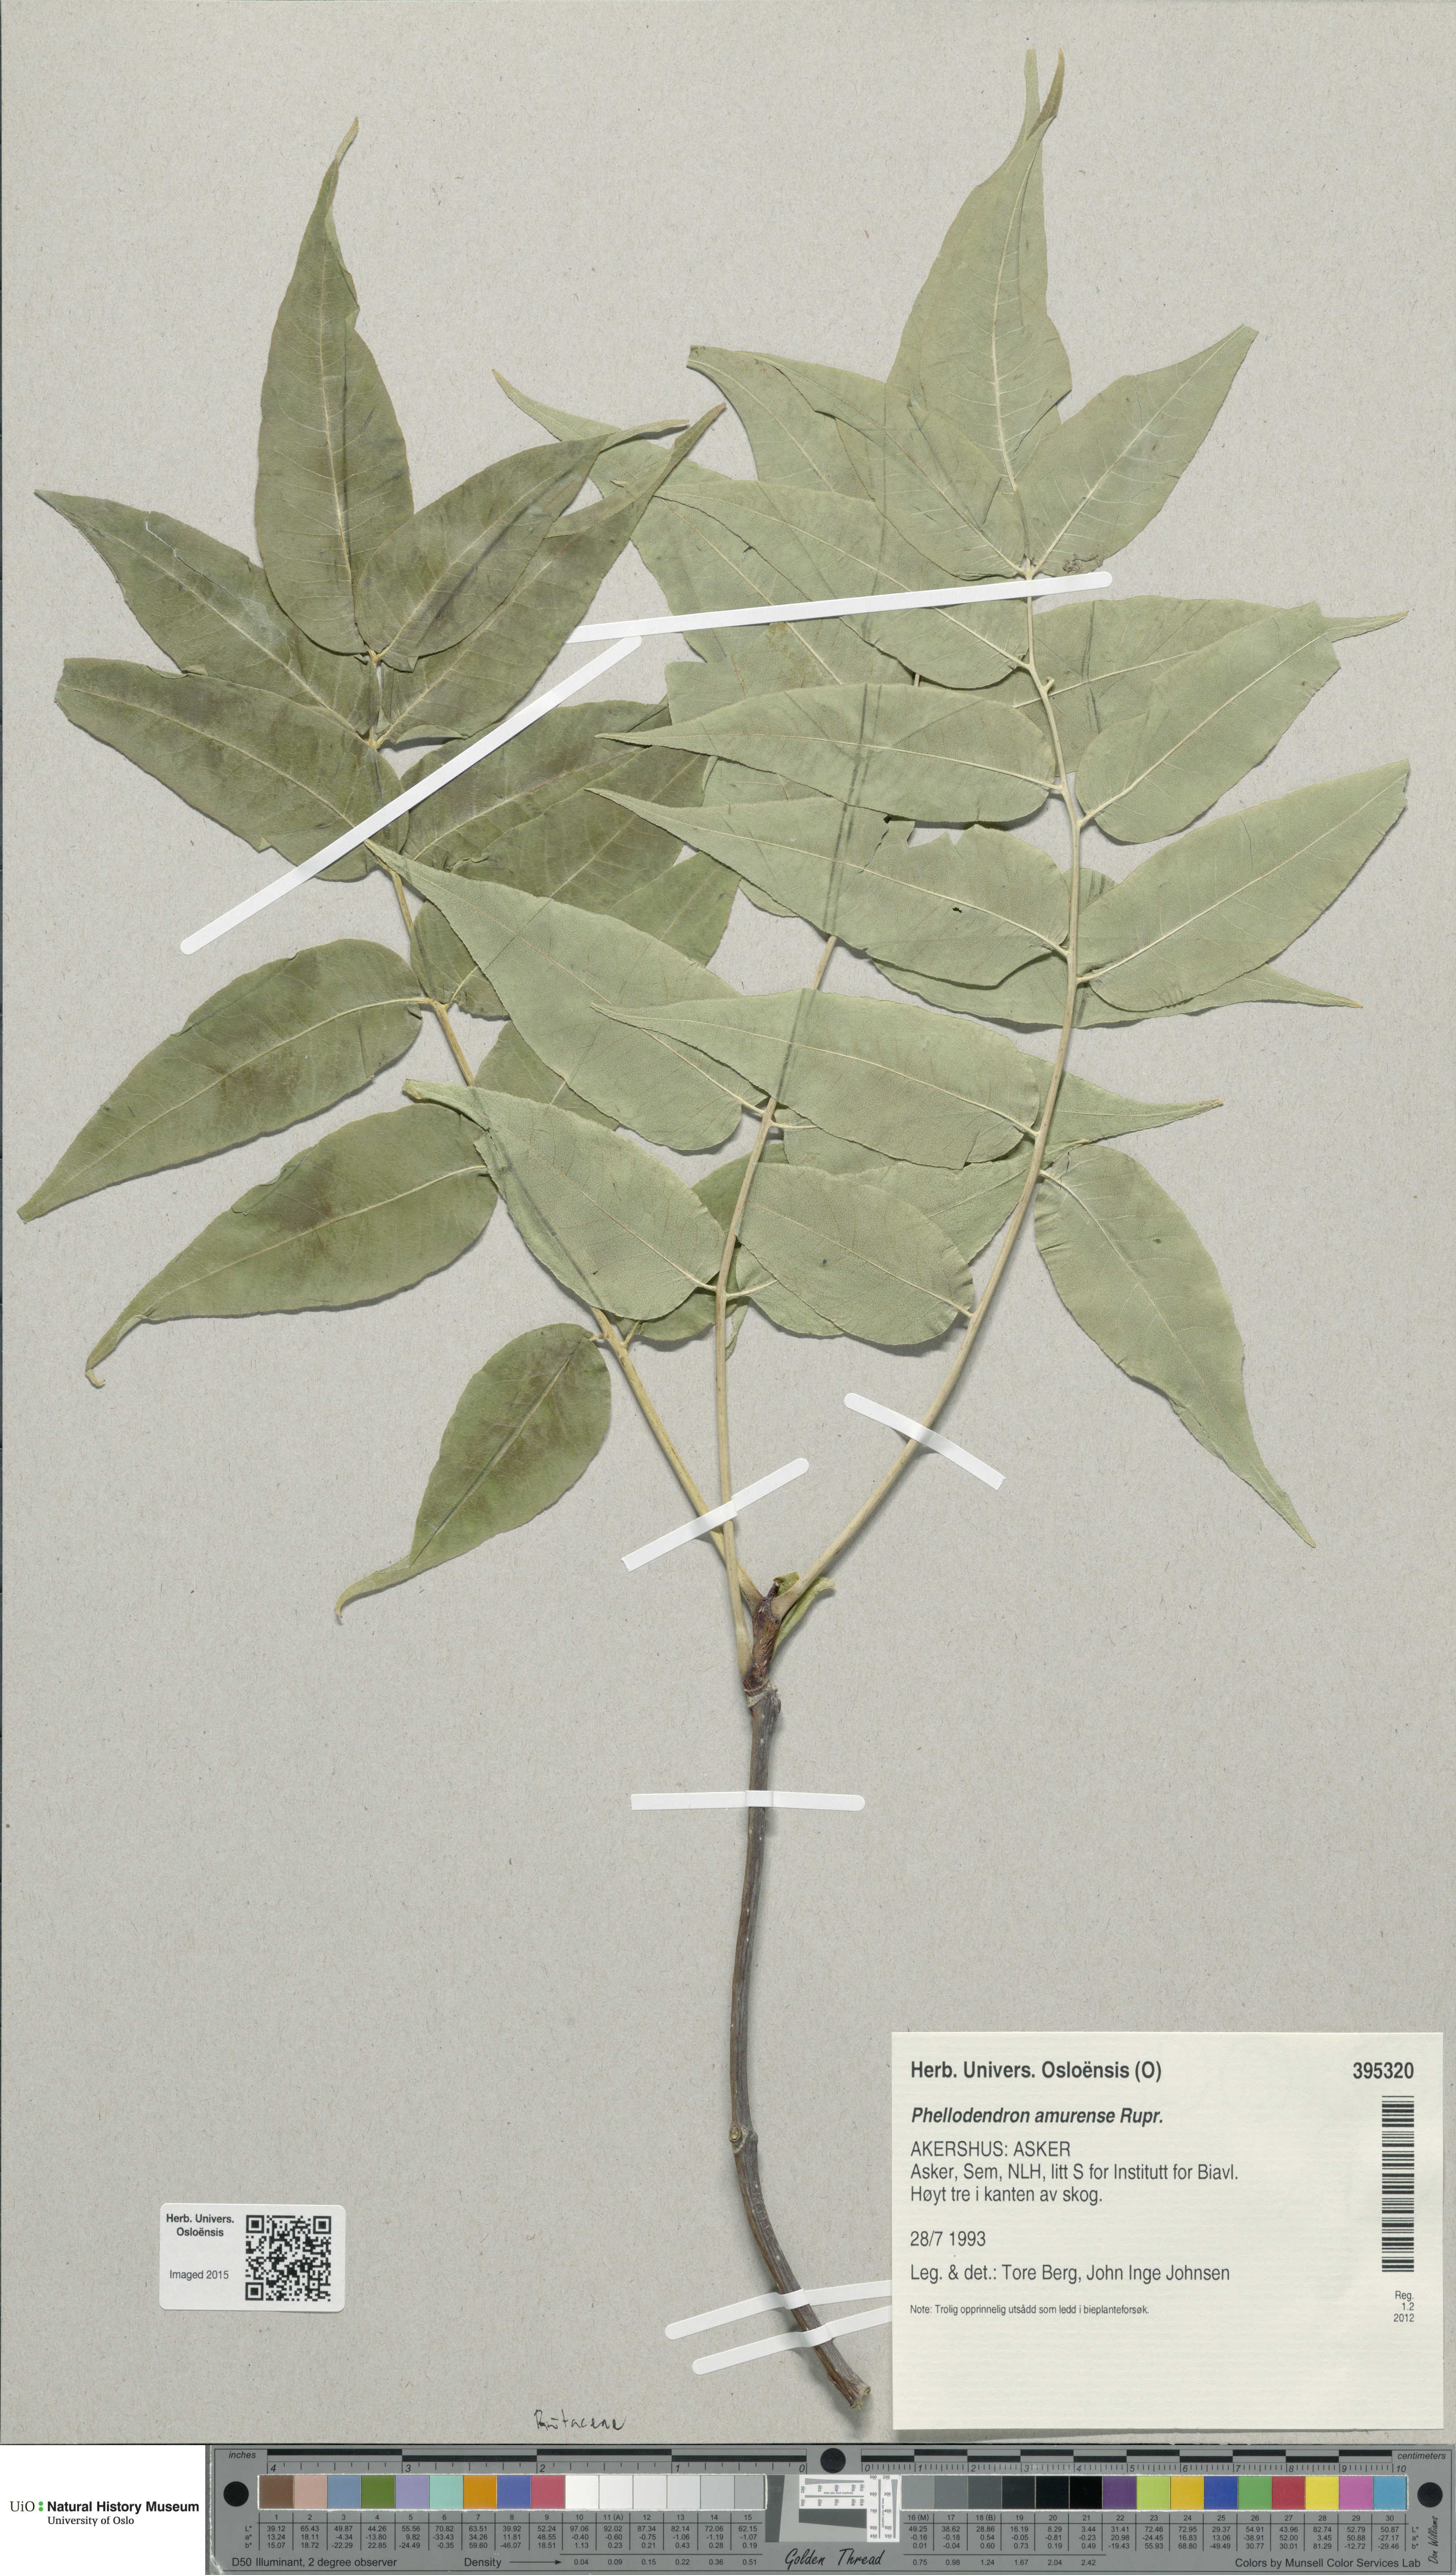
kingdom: Plantae
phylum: Tracheophyta
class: Magnoliopsida
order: Sapindales
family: Rutaceae
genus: Phellodendron
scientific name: Phellodendron amurense
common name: Amur corktree
